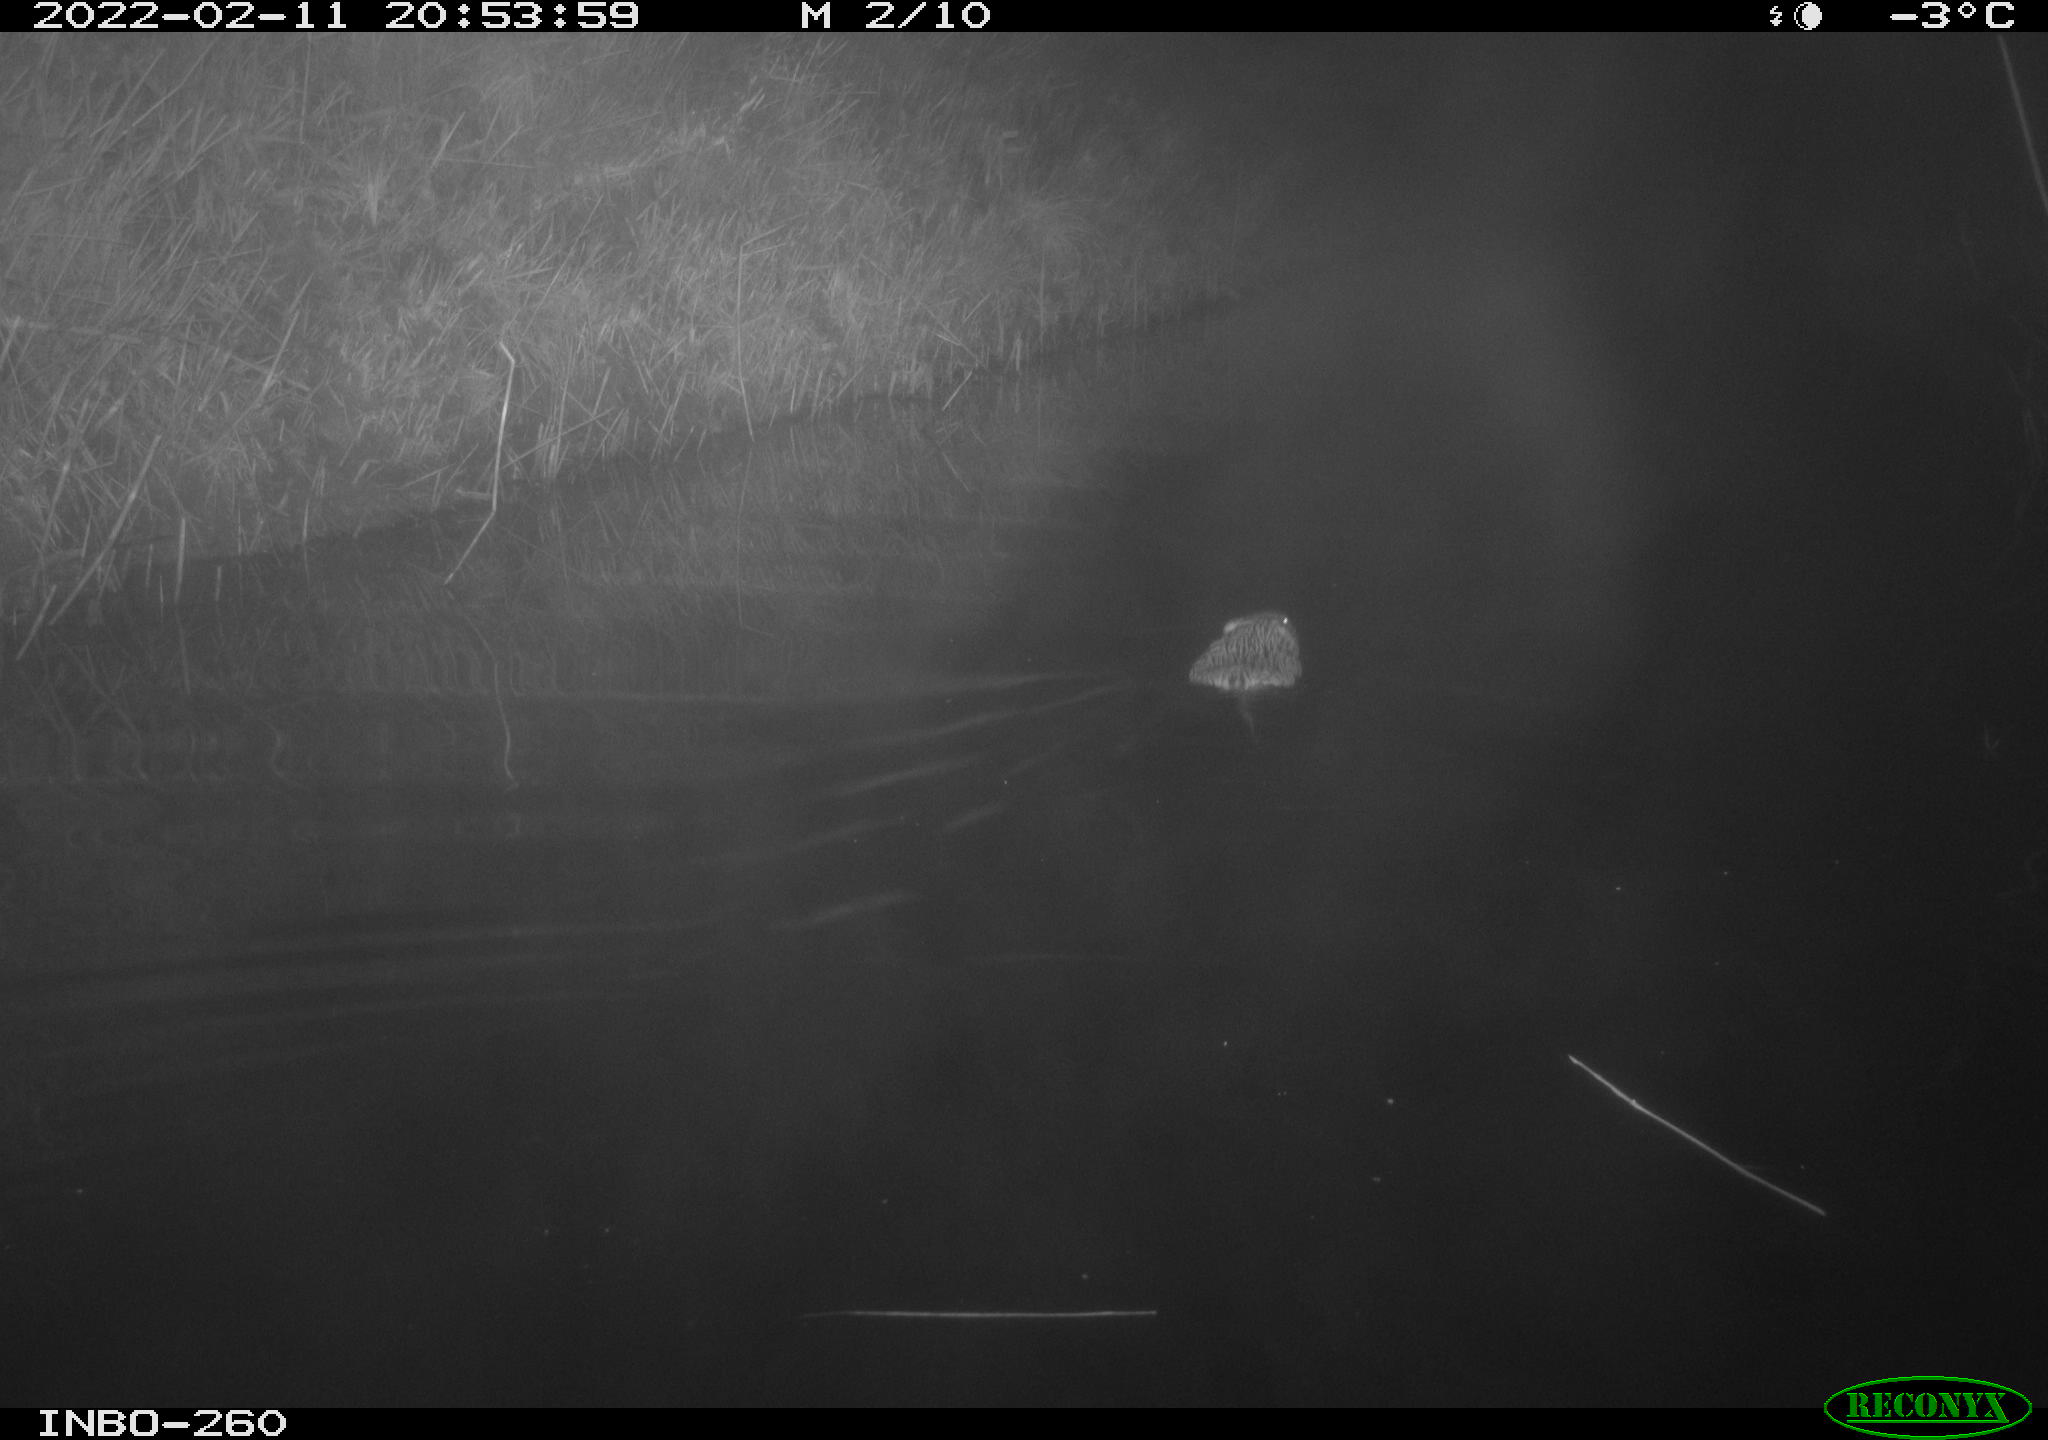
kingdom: Animalia
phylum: Chordata
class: Mammalia
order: Rodentia
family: Cricetidae
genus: Ondatra
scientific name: Ondatra zibethicus
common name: Muskrat
